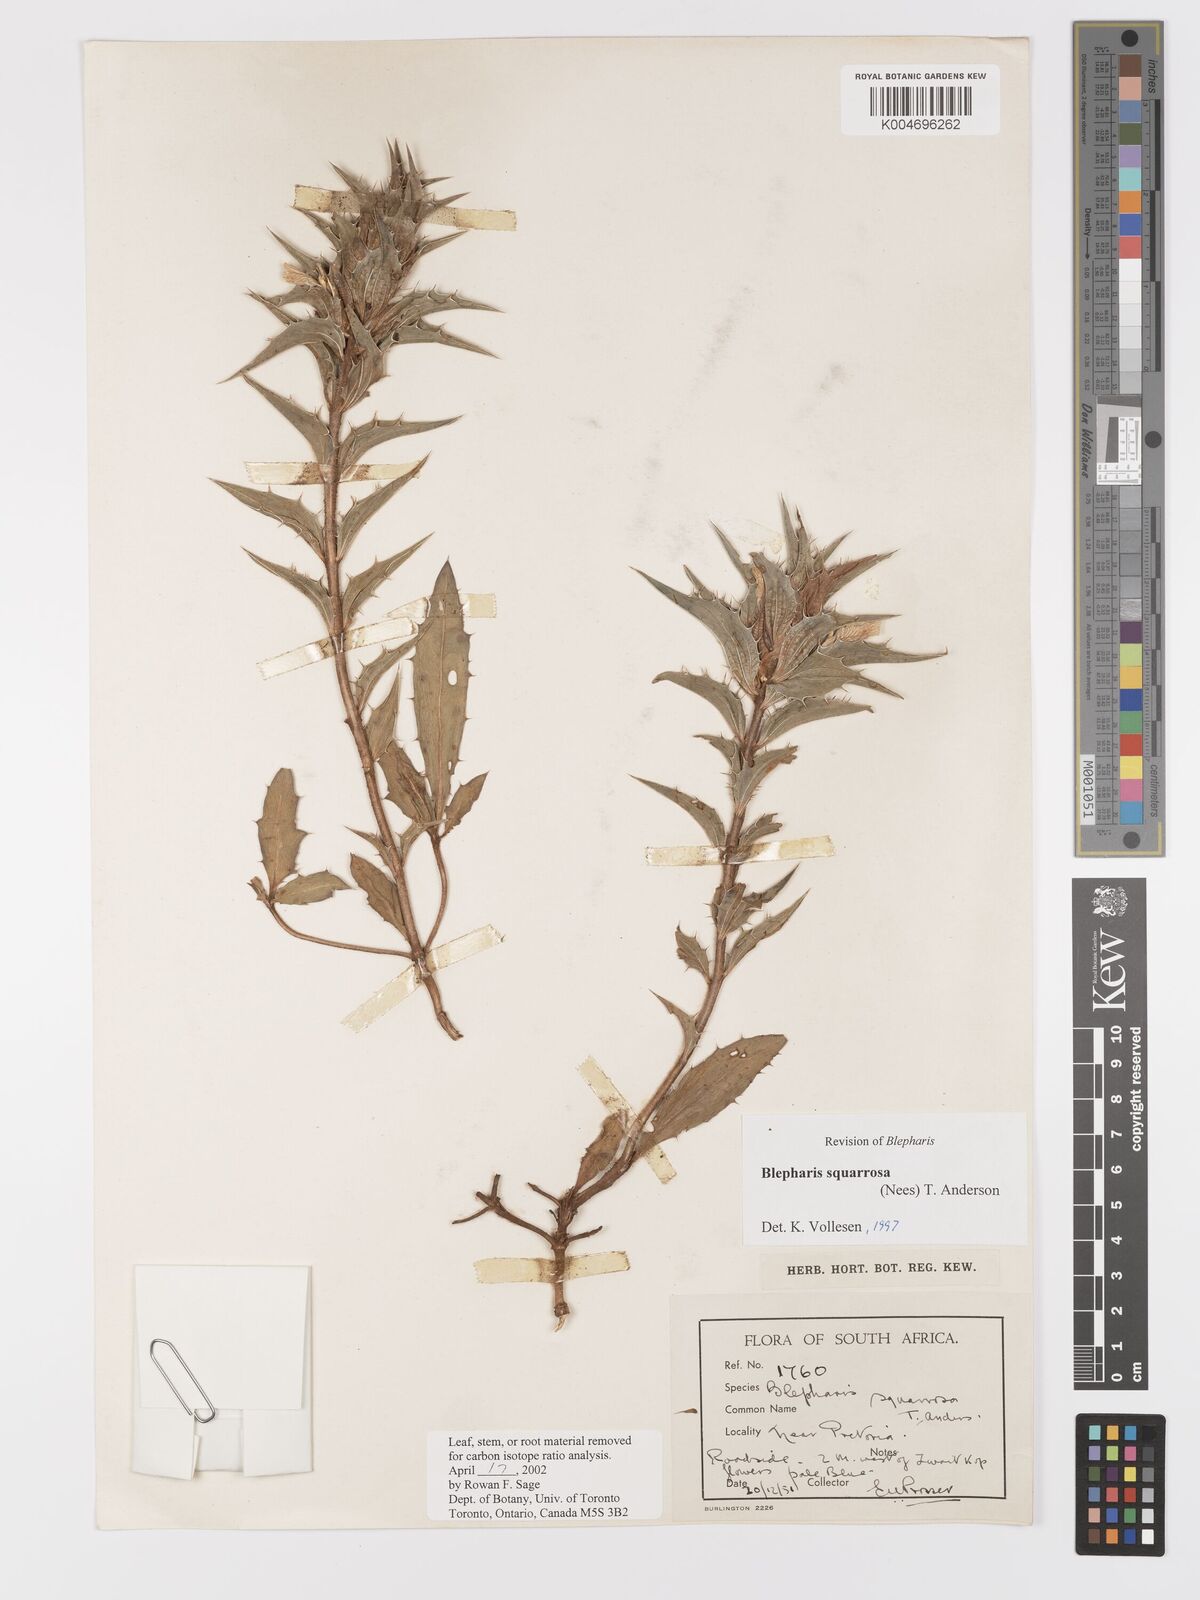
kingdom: Plantae
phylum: Tracheophyta
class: Magnoliopsida
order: Lamiales
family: Acanthaceae
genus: Blepharis
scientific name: Blepharis squarrosa
